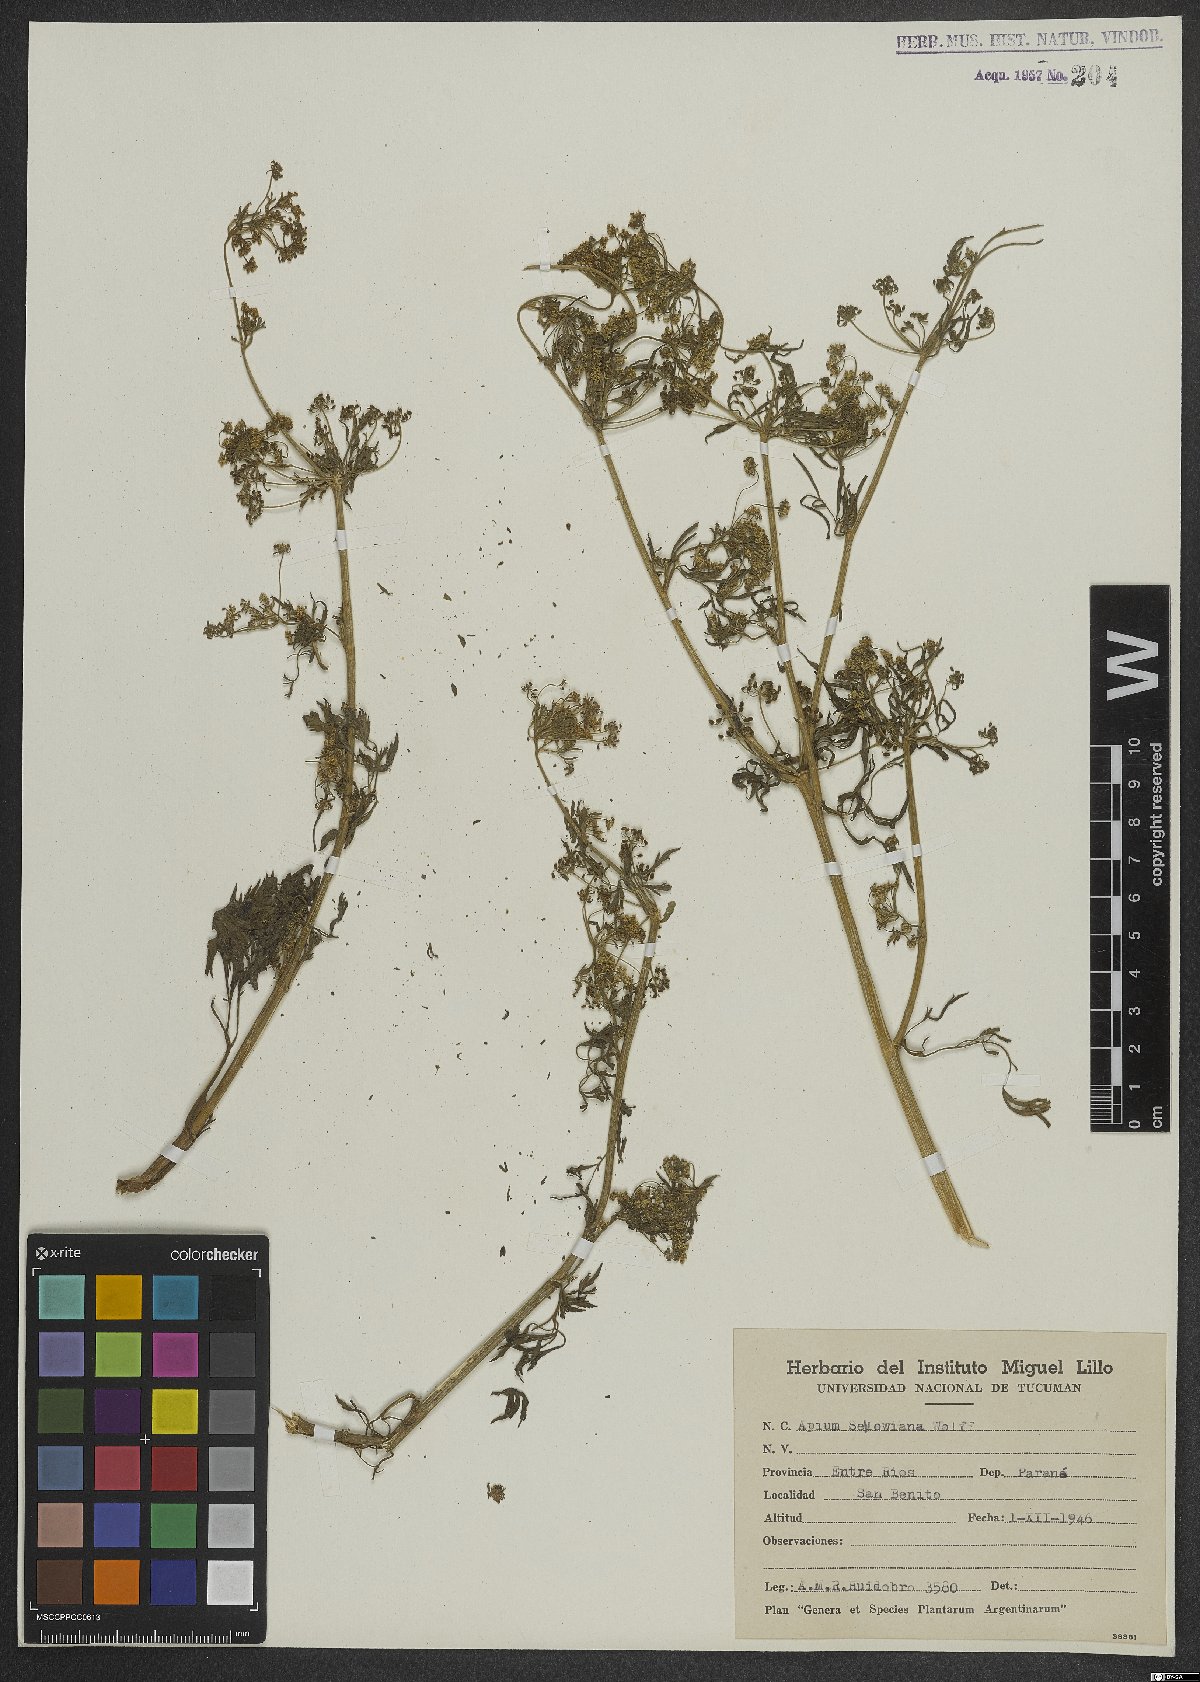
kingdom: Plantae
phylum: Tracheophyta
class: Magnoliopsida
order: Apiales
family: Apiaceae
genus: Apium
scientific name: Apium sellowianum
